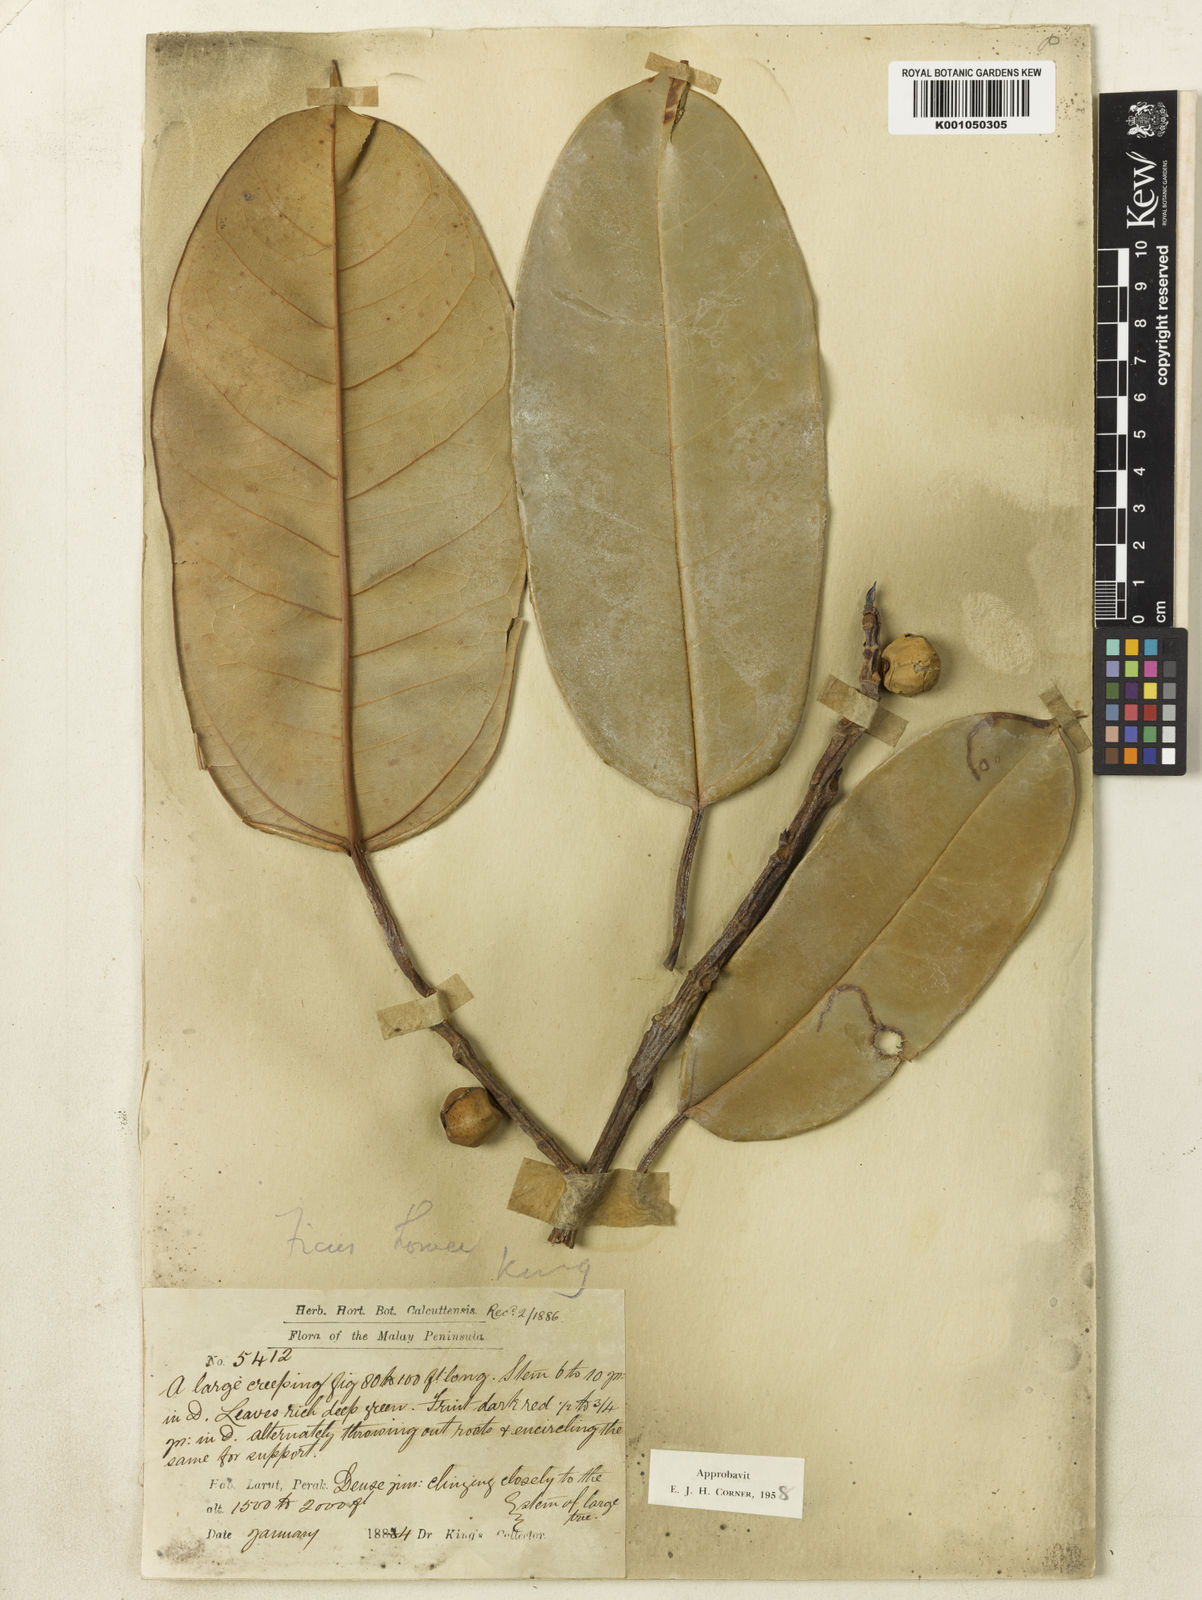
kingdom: Plantae
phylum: Tracheophyta
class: Magnoliopsida
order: Rosales
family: Moraceae
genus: Ficus
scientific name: Ficus lowii
